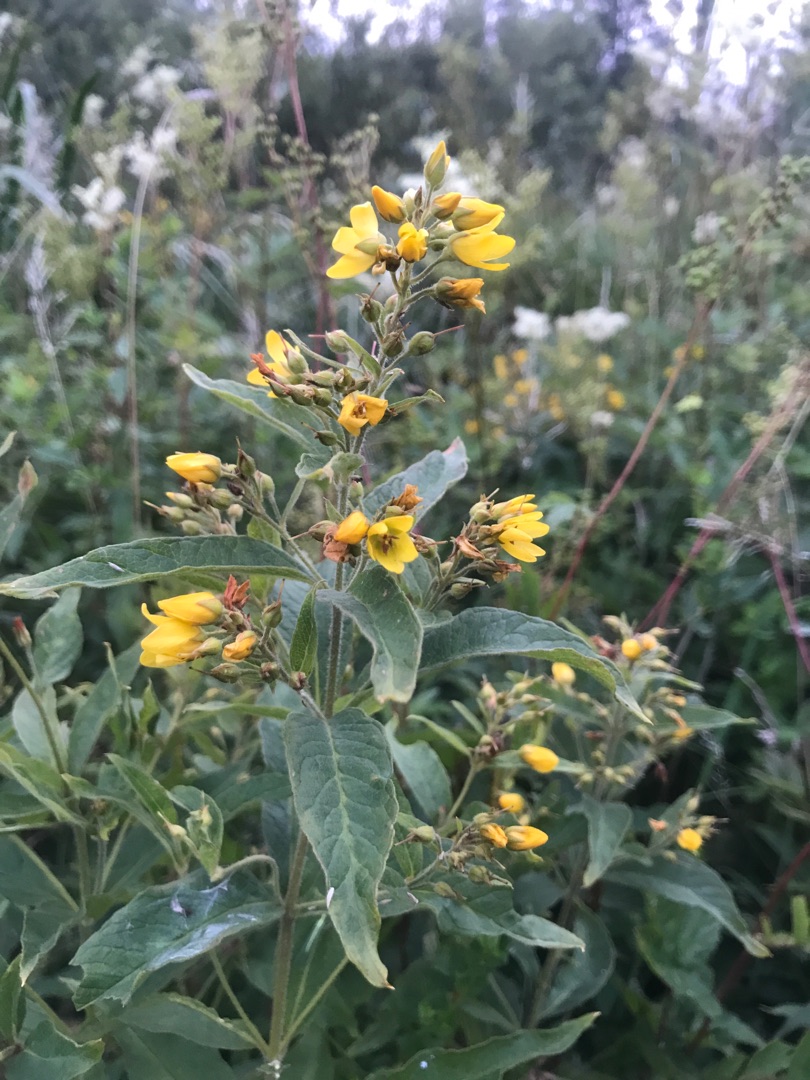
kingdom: Plantae
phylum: Tracheophyta
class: Magnoliopsida
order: Ericales
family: Primulaceae
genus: Lysimachia
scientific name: Lysimachia vulgaris
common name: Almindelig fredløs
